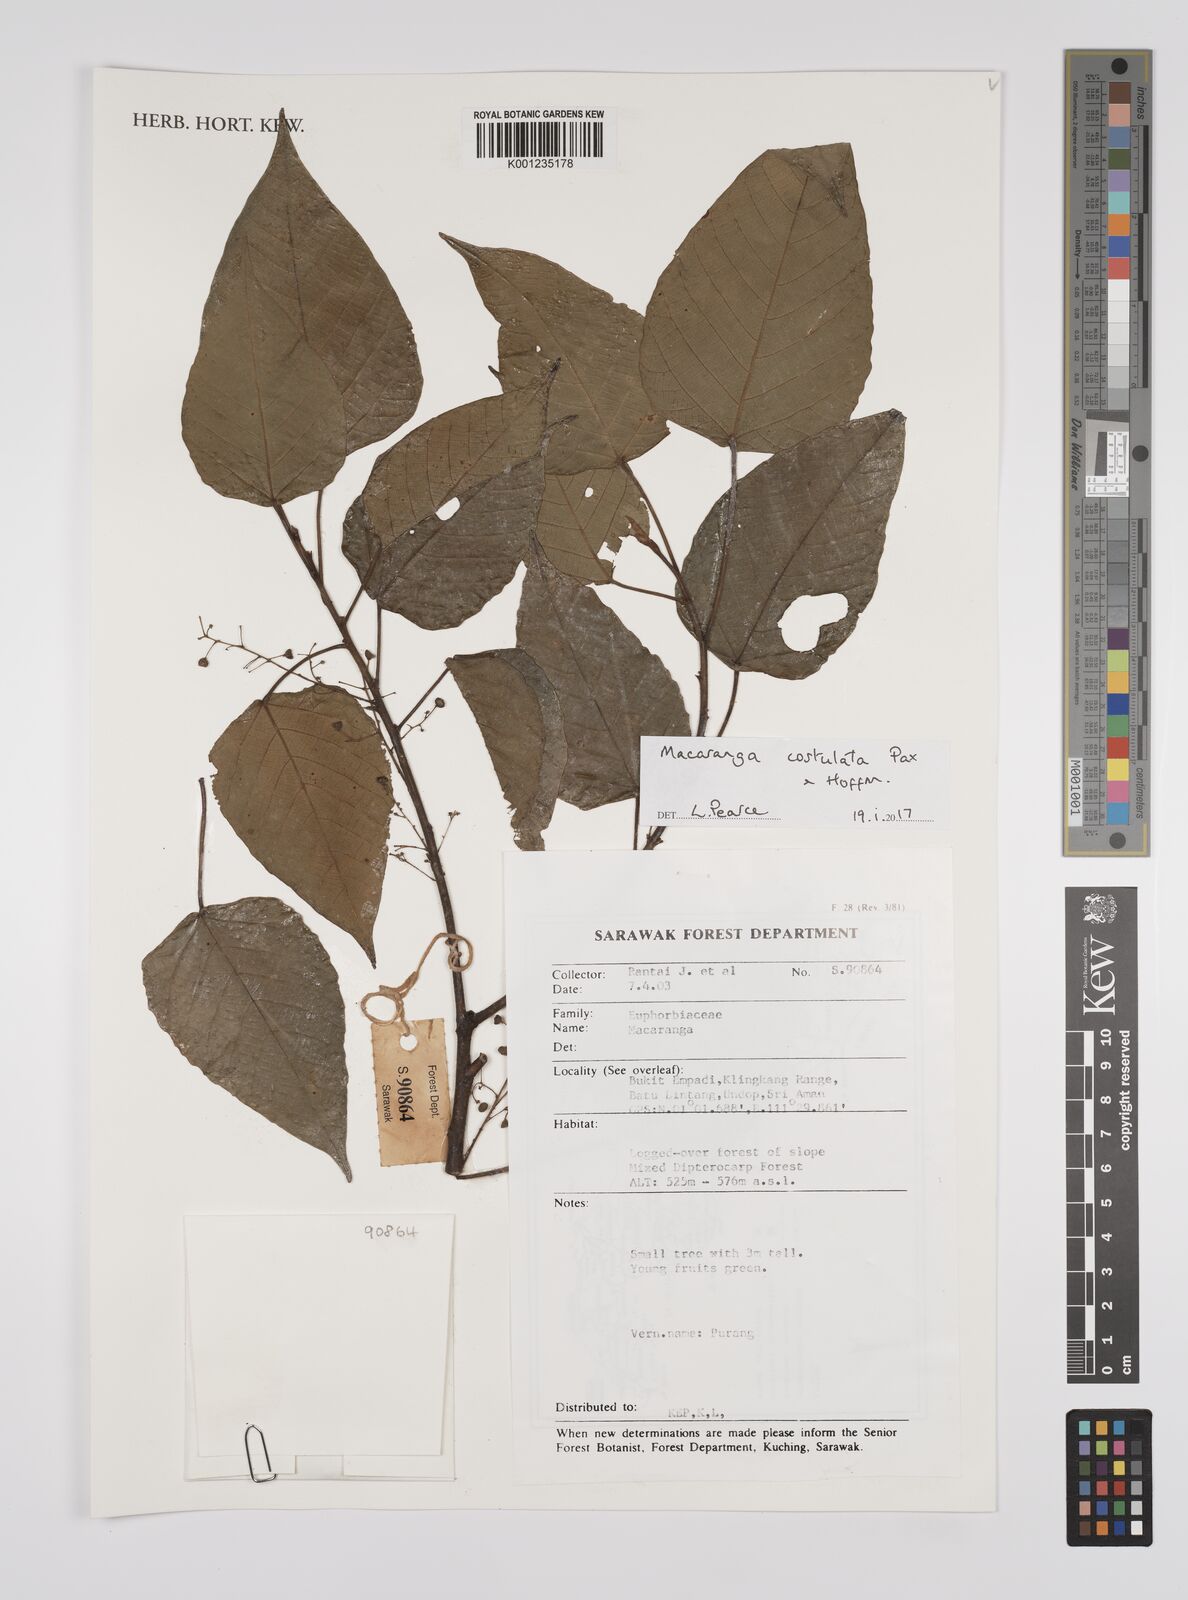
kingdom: Plantae
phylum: Tracheophyta
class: Magnoliopsida
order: Malpighiales
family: Euphorbiaceae
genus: Macaranga
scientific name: Macaranga costulata
